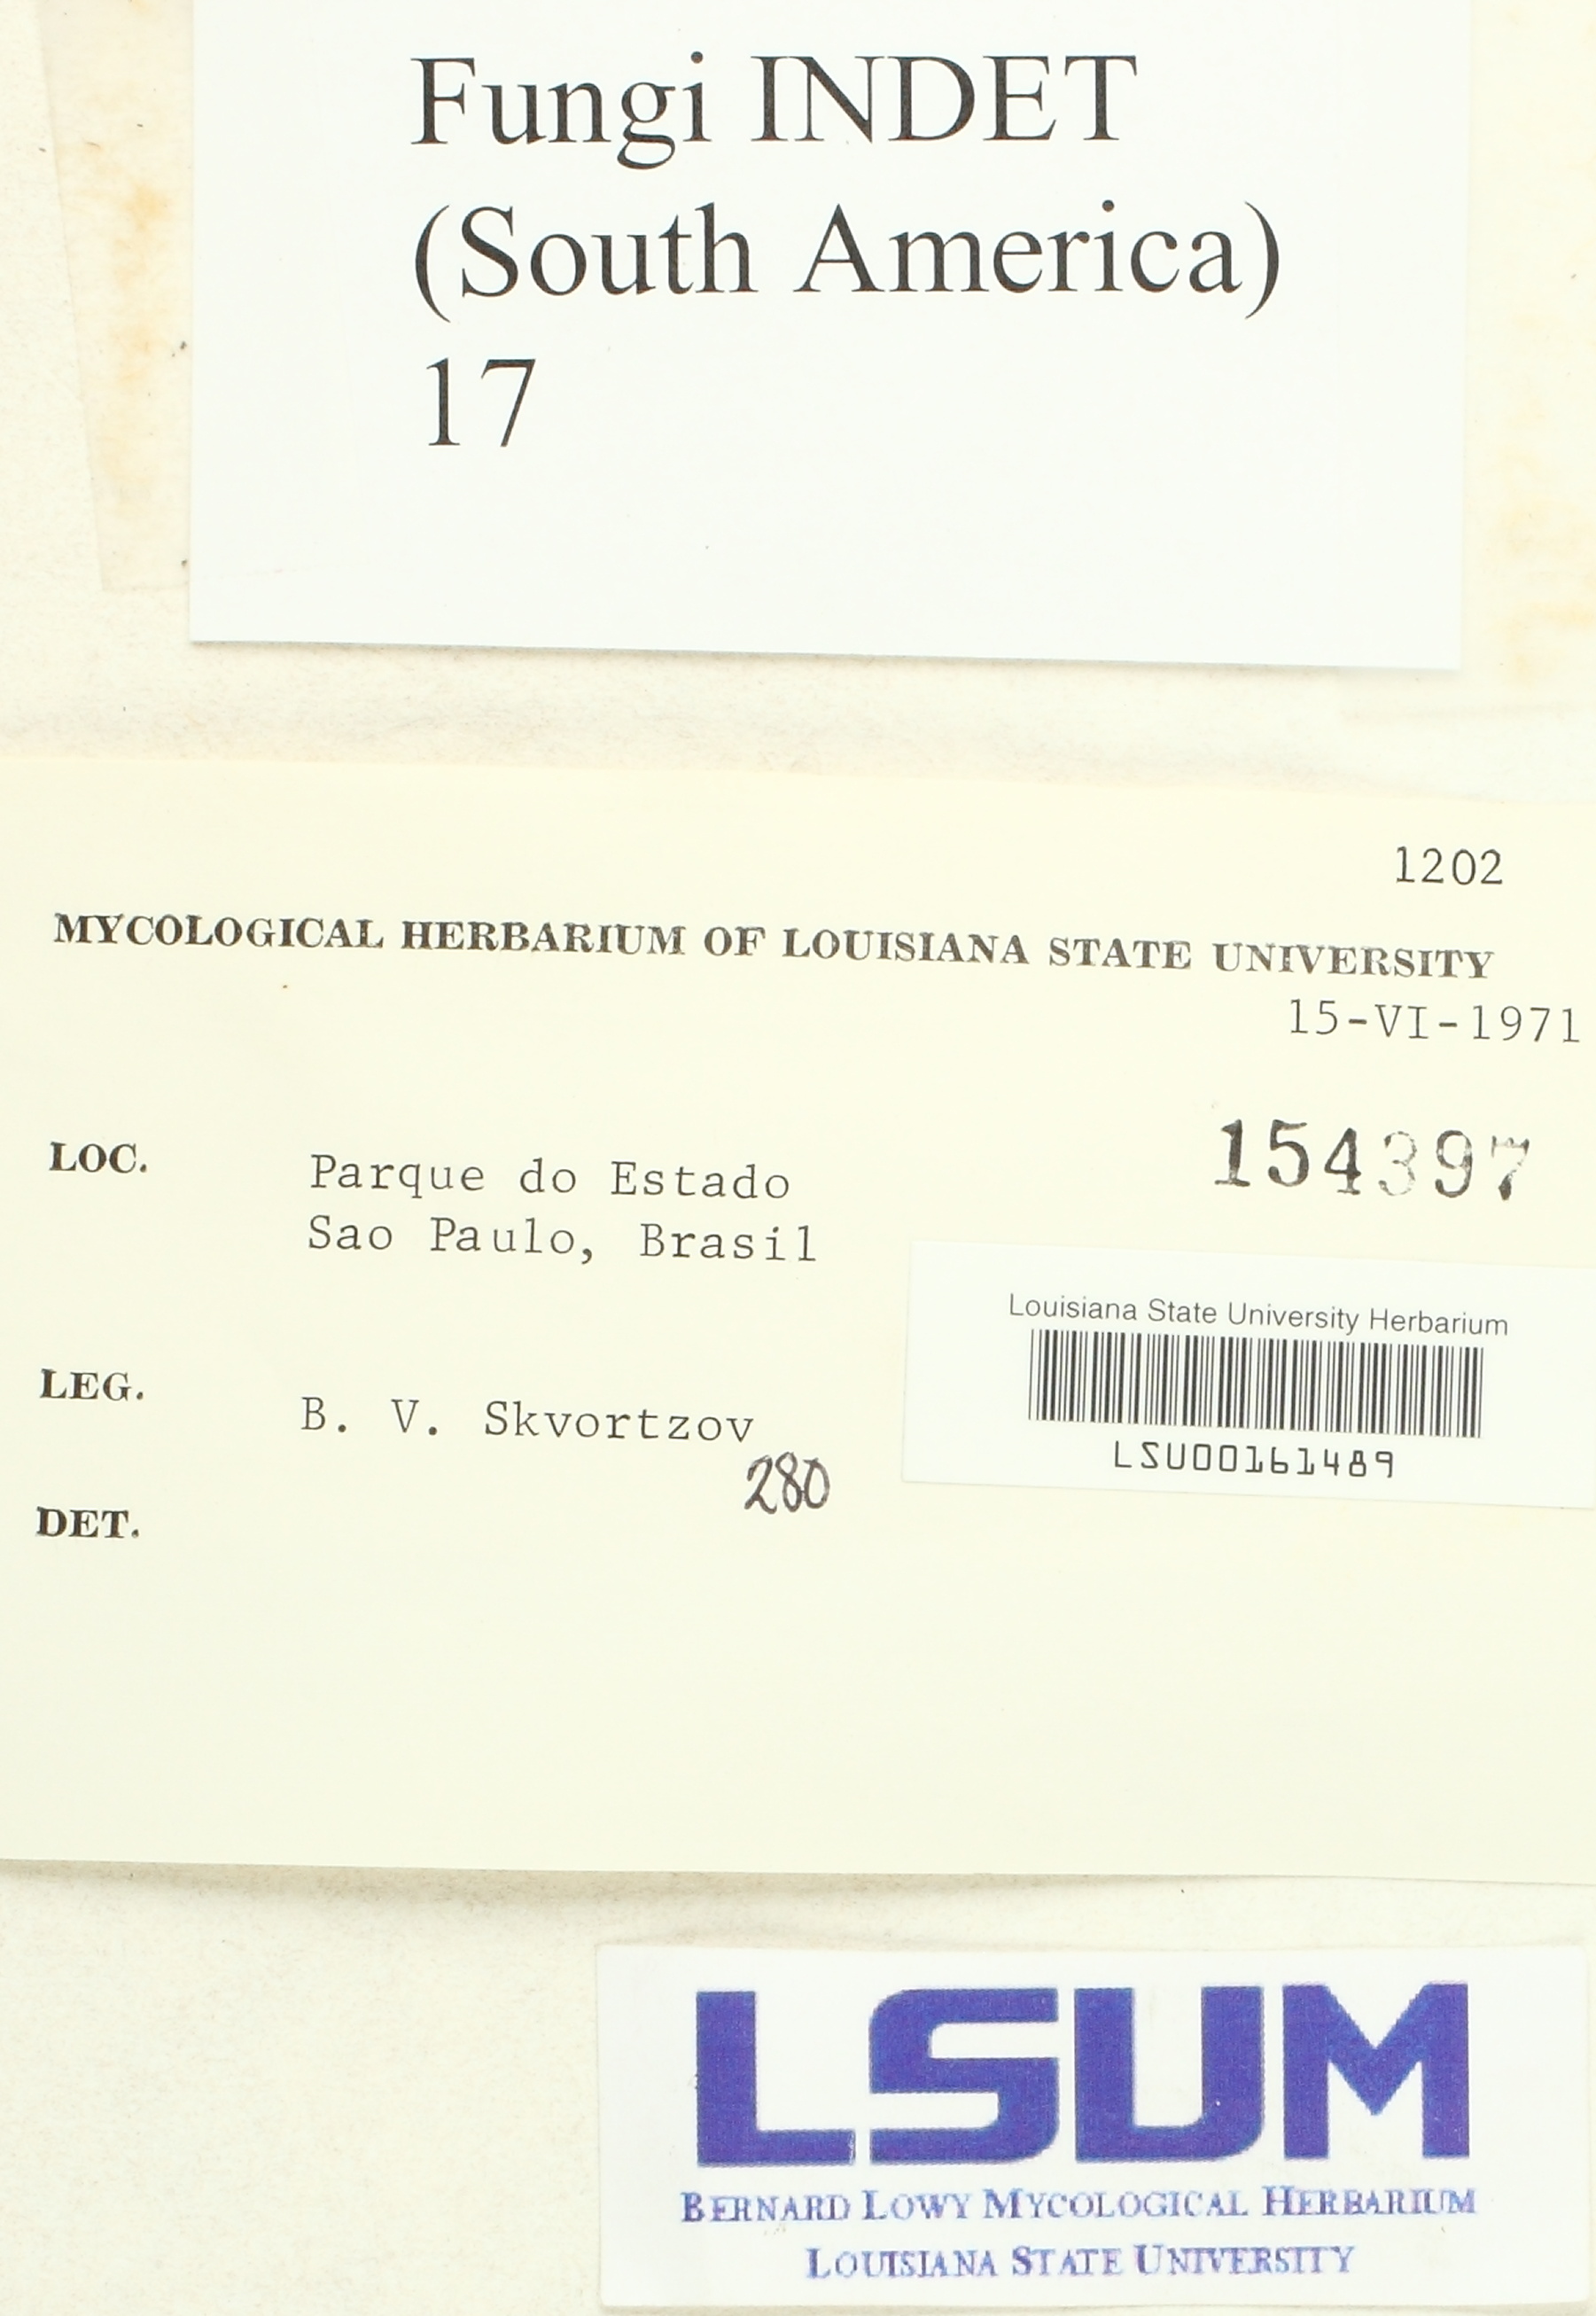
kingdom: Fungi
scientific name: Fungi
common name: Fungi
